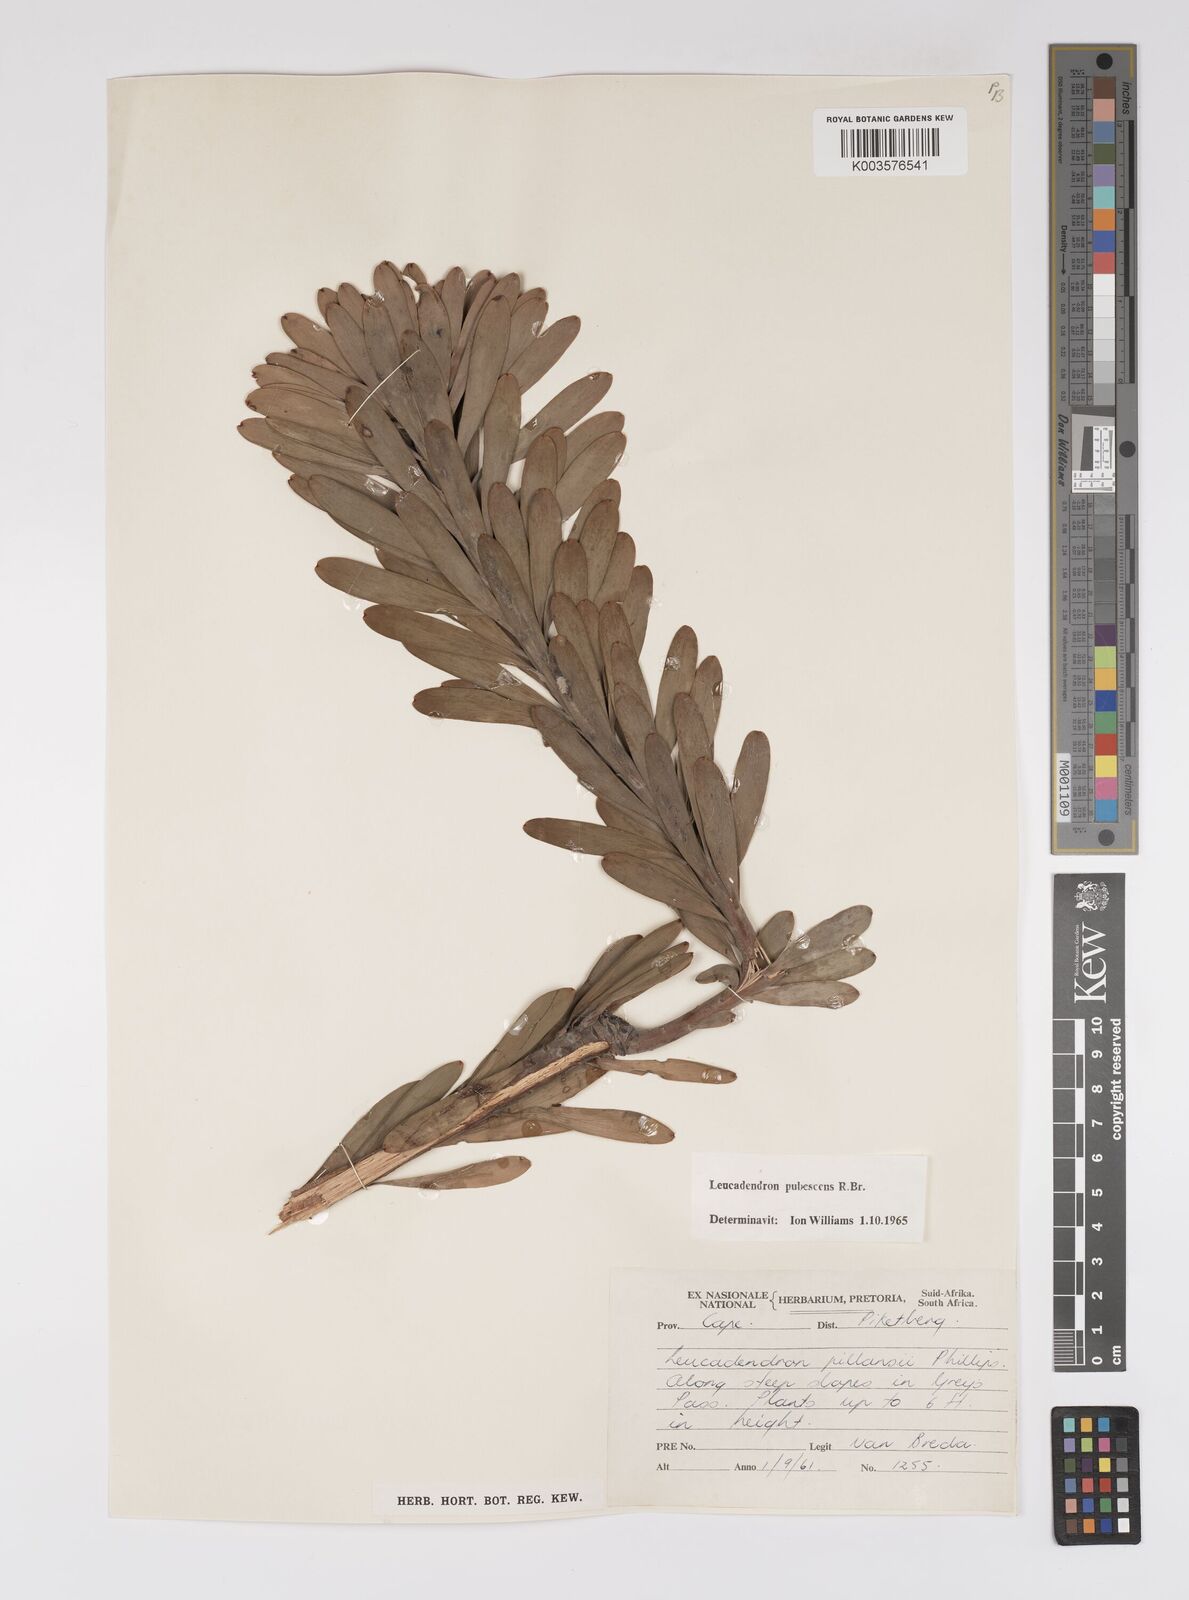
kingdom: Plantae
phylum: Tracheophyta
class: Magnoliopsida
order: Proteales
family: Proteaceae
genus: Leucadendron
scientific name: Leucadendron pubescens
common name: Grey conebush
